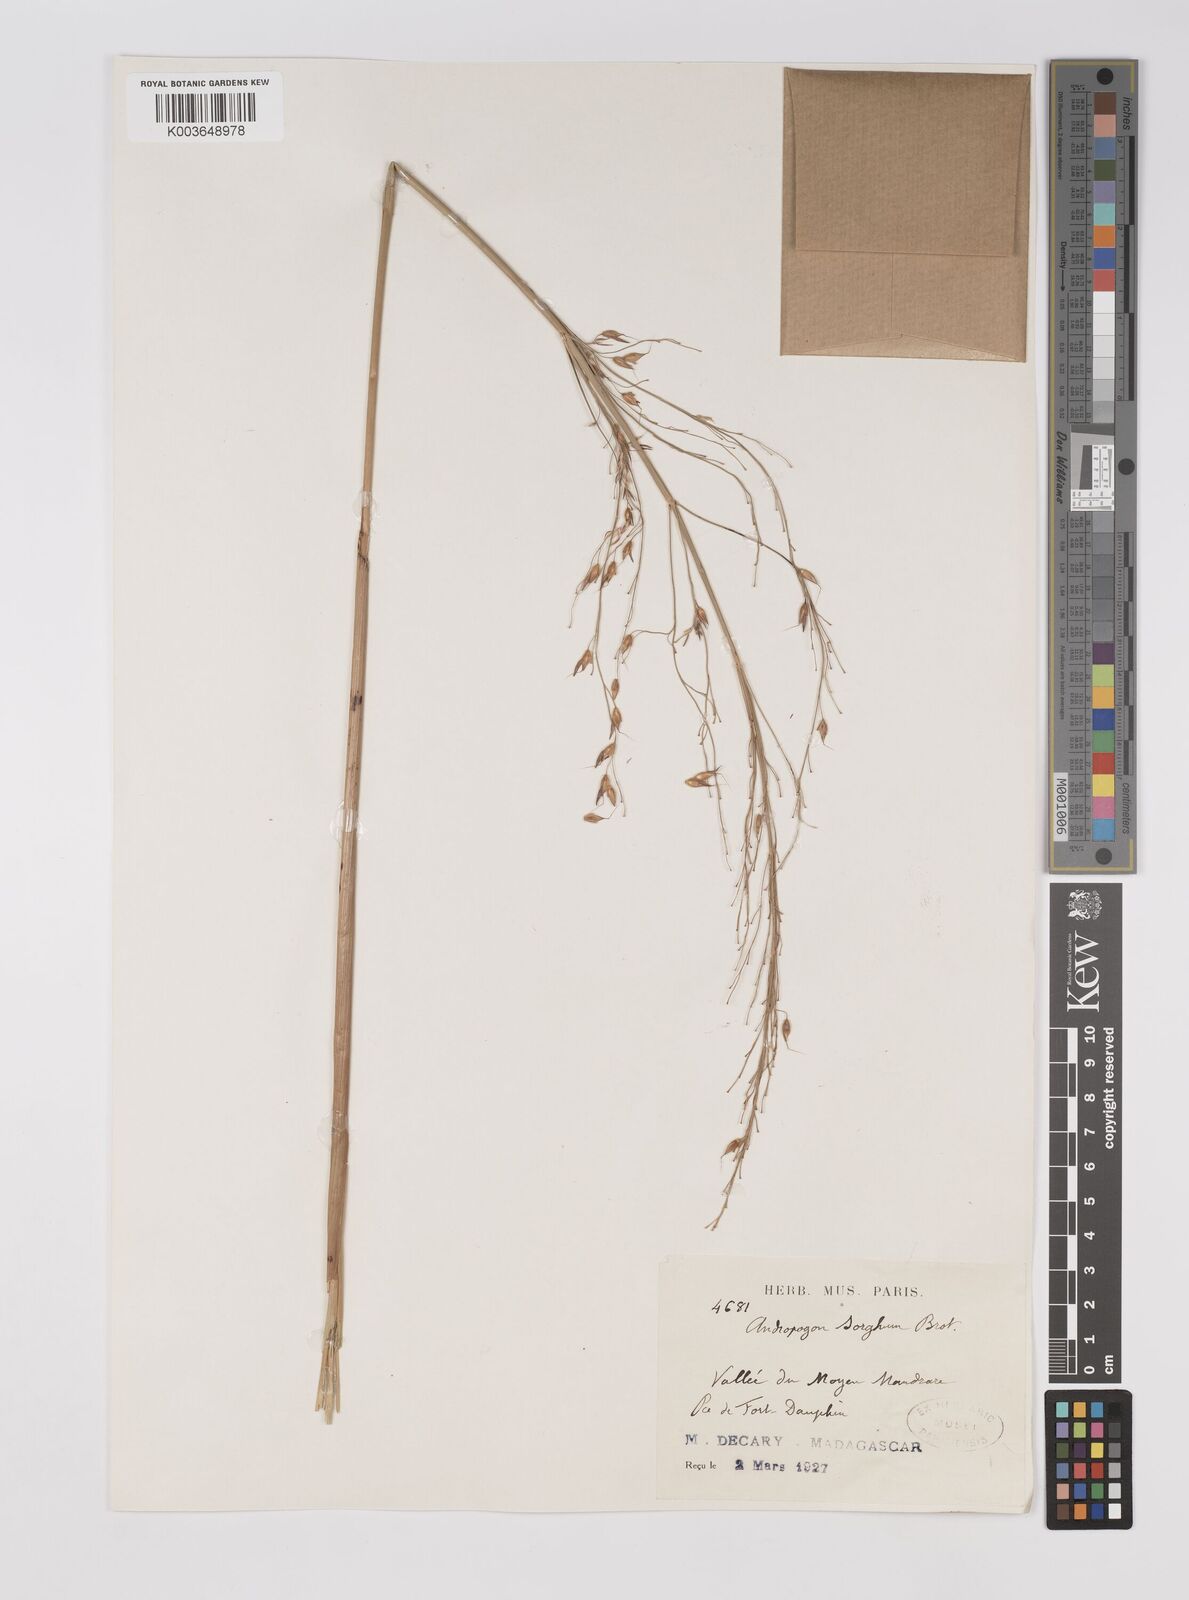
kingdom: Plantae
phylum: Tracheophyta
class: Liliopsida
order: Poales
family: Poaceae
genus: Sorghum
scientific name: Sorghum arundinaceum
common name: Sorghum
